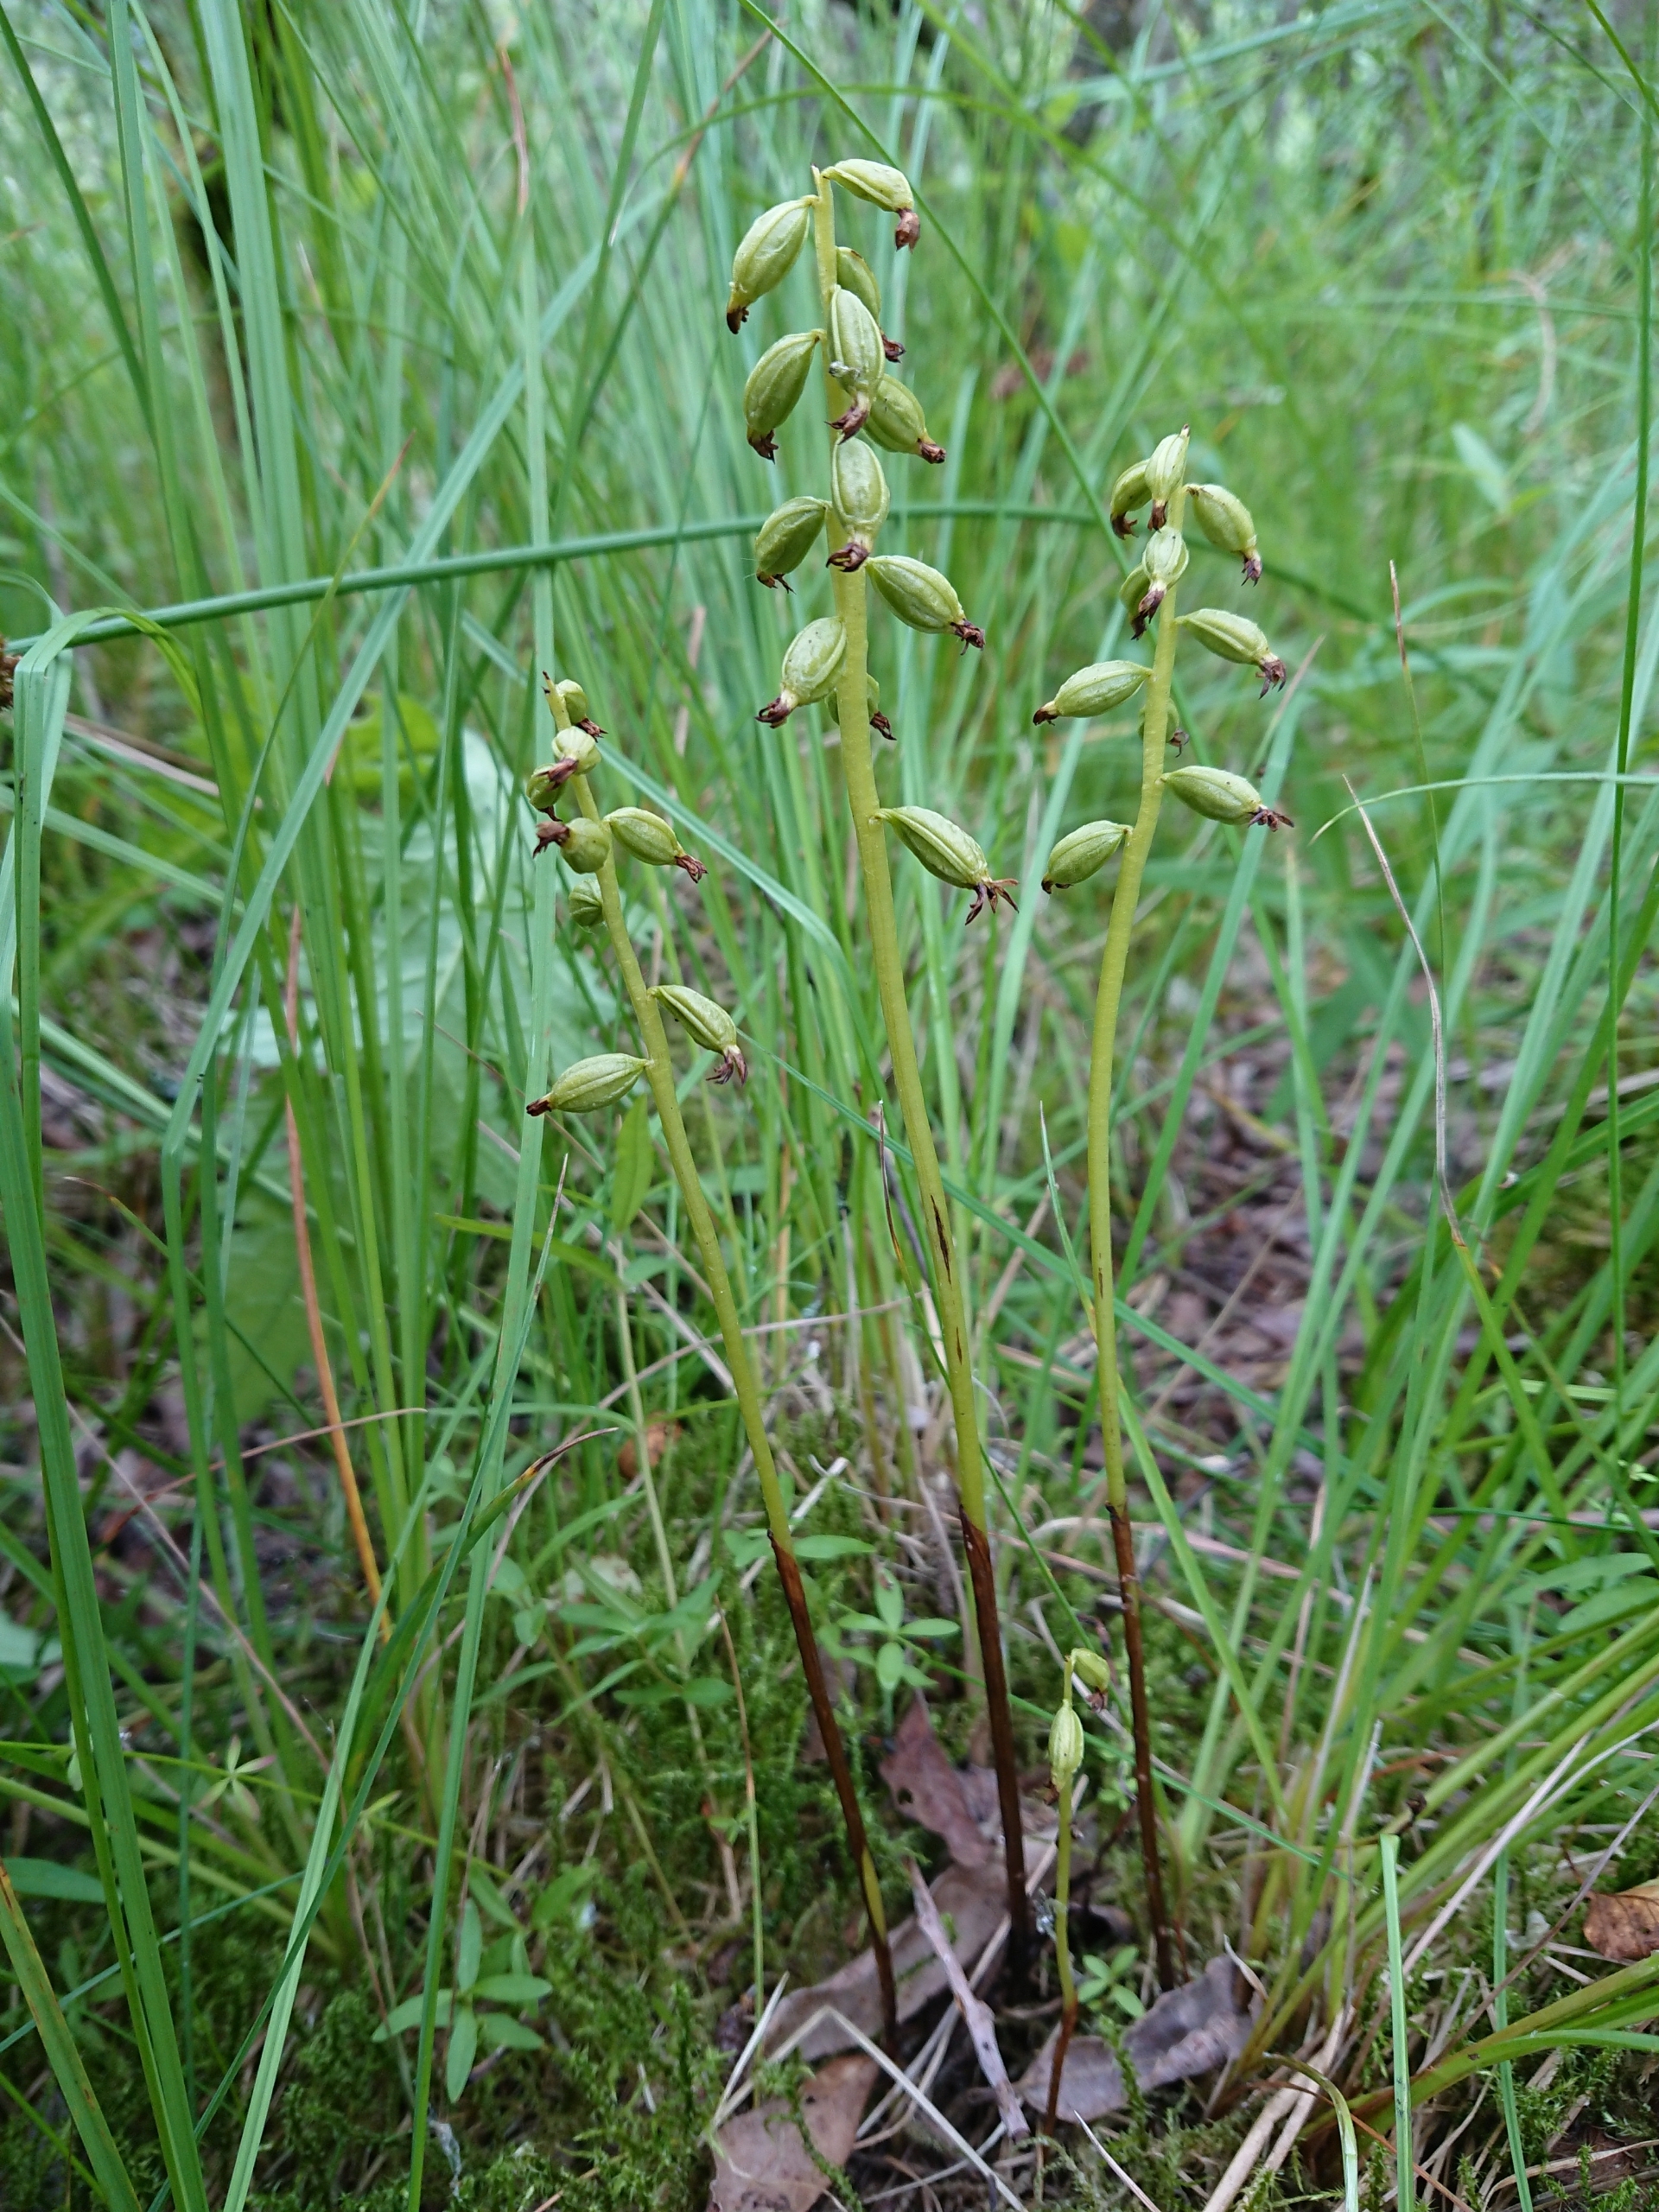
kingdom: Plantae
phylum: Tracheophyta
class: Liliopsida
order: Asparagales
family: Orchidaceae
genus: Corallorhiza
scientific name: Corallorhiza trifida
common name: Koralrod
